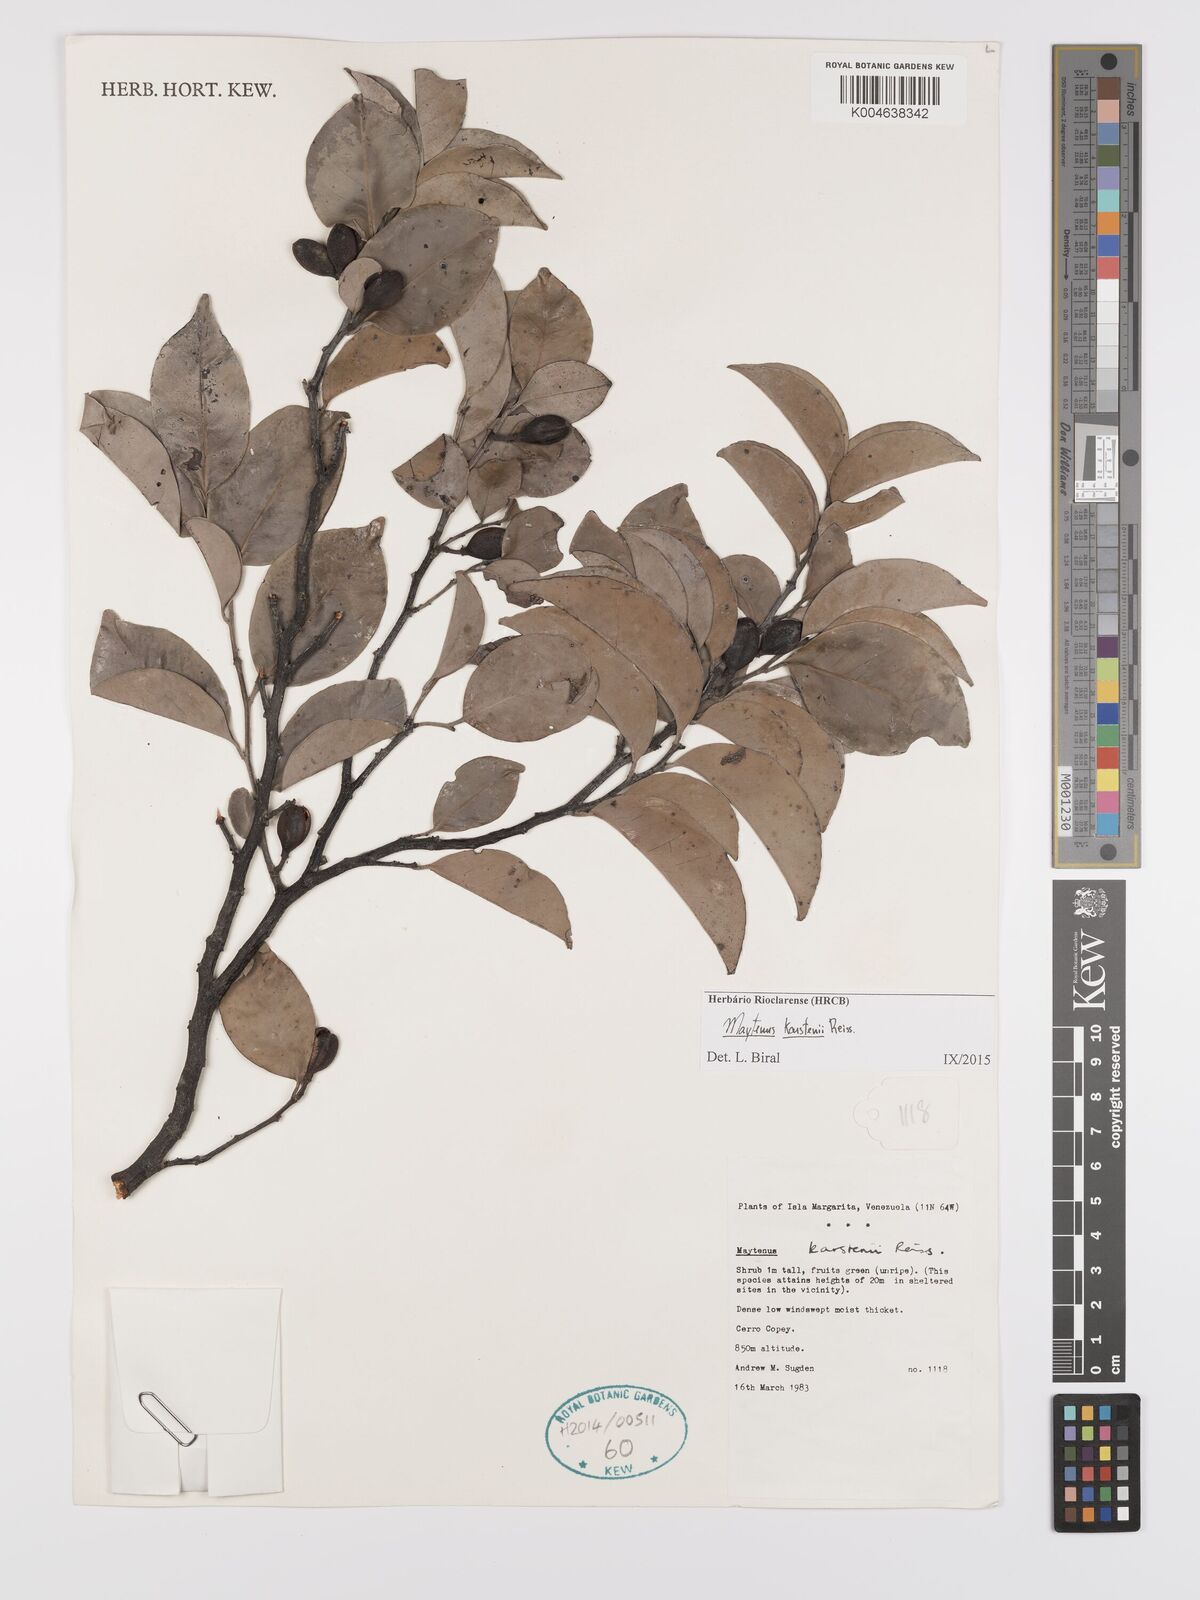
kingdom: Plantae
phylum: Tracheophyta
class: Magnoliopsida
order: Celastrales
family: Celastraceae
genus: Monteverdia
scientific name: Monteverdia karstenii
